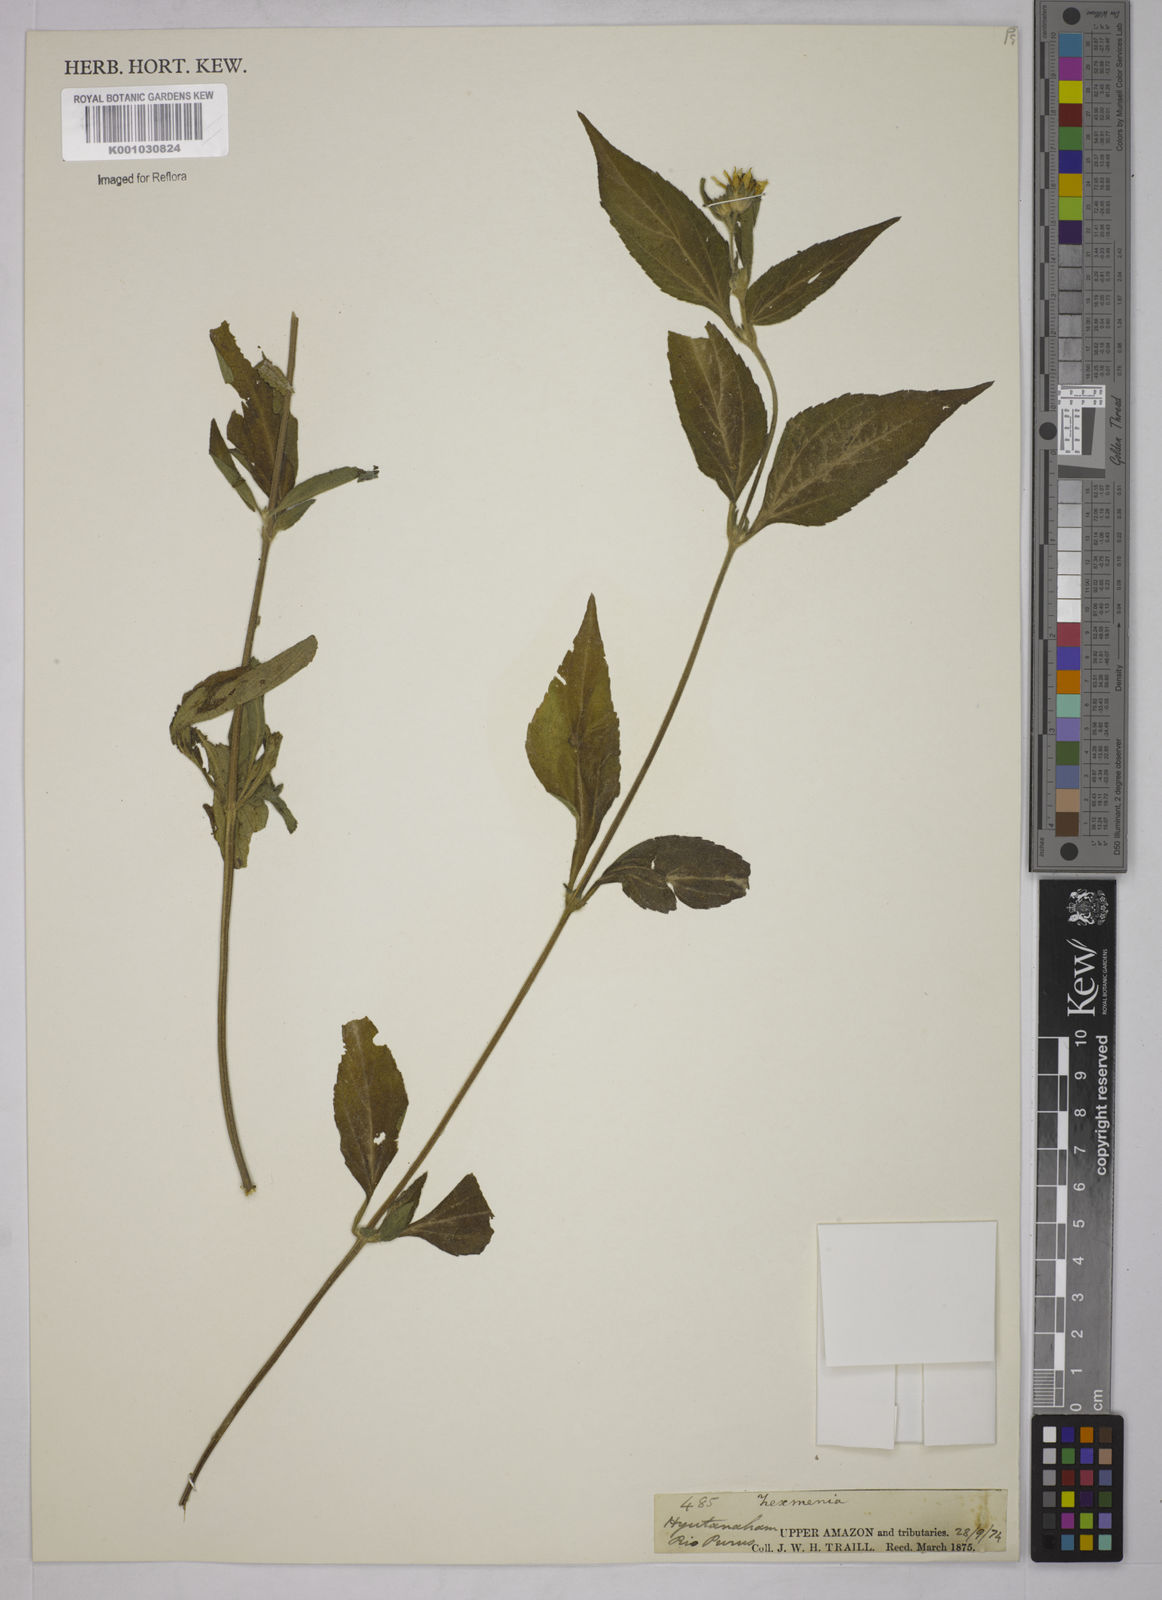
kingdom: Plantae
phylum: Tracheophyta
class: Magnoliopsida
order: Asterales
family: Asteraceae
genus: Zexmenia
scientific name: Zexmenia
